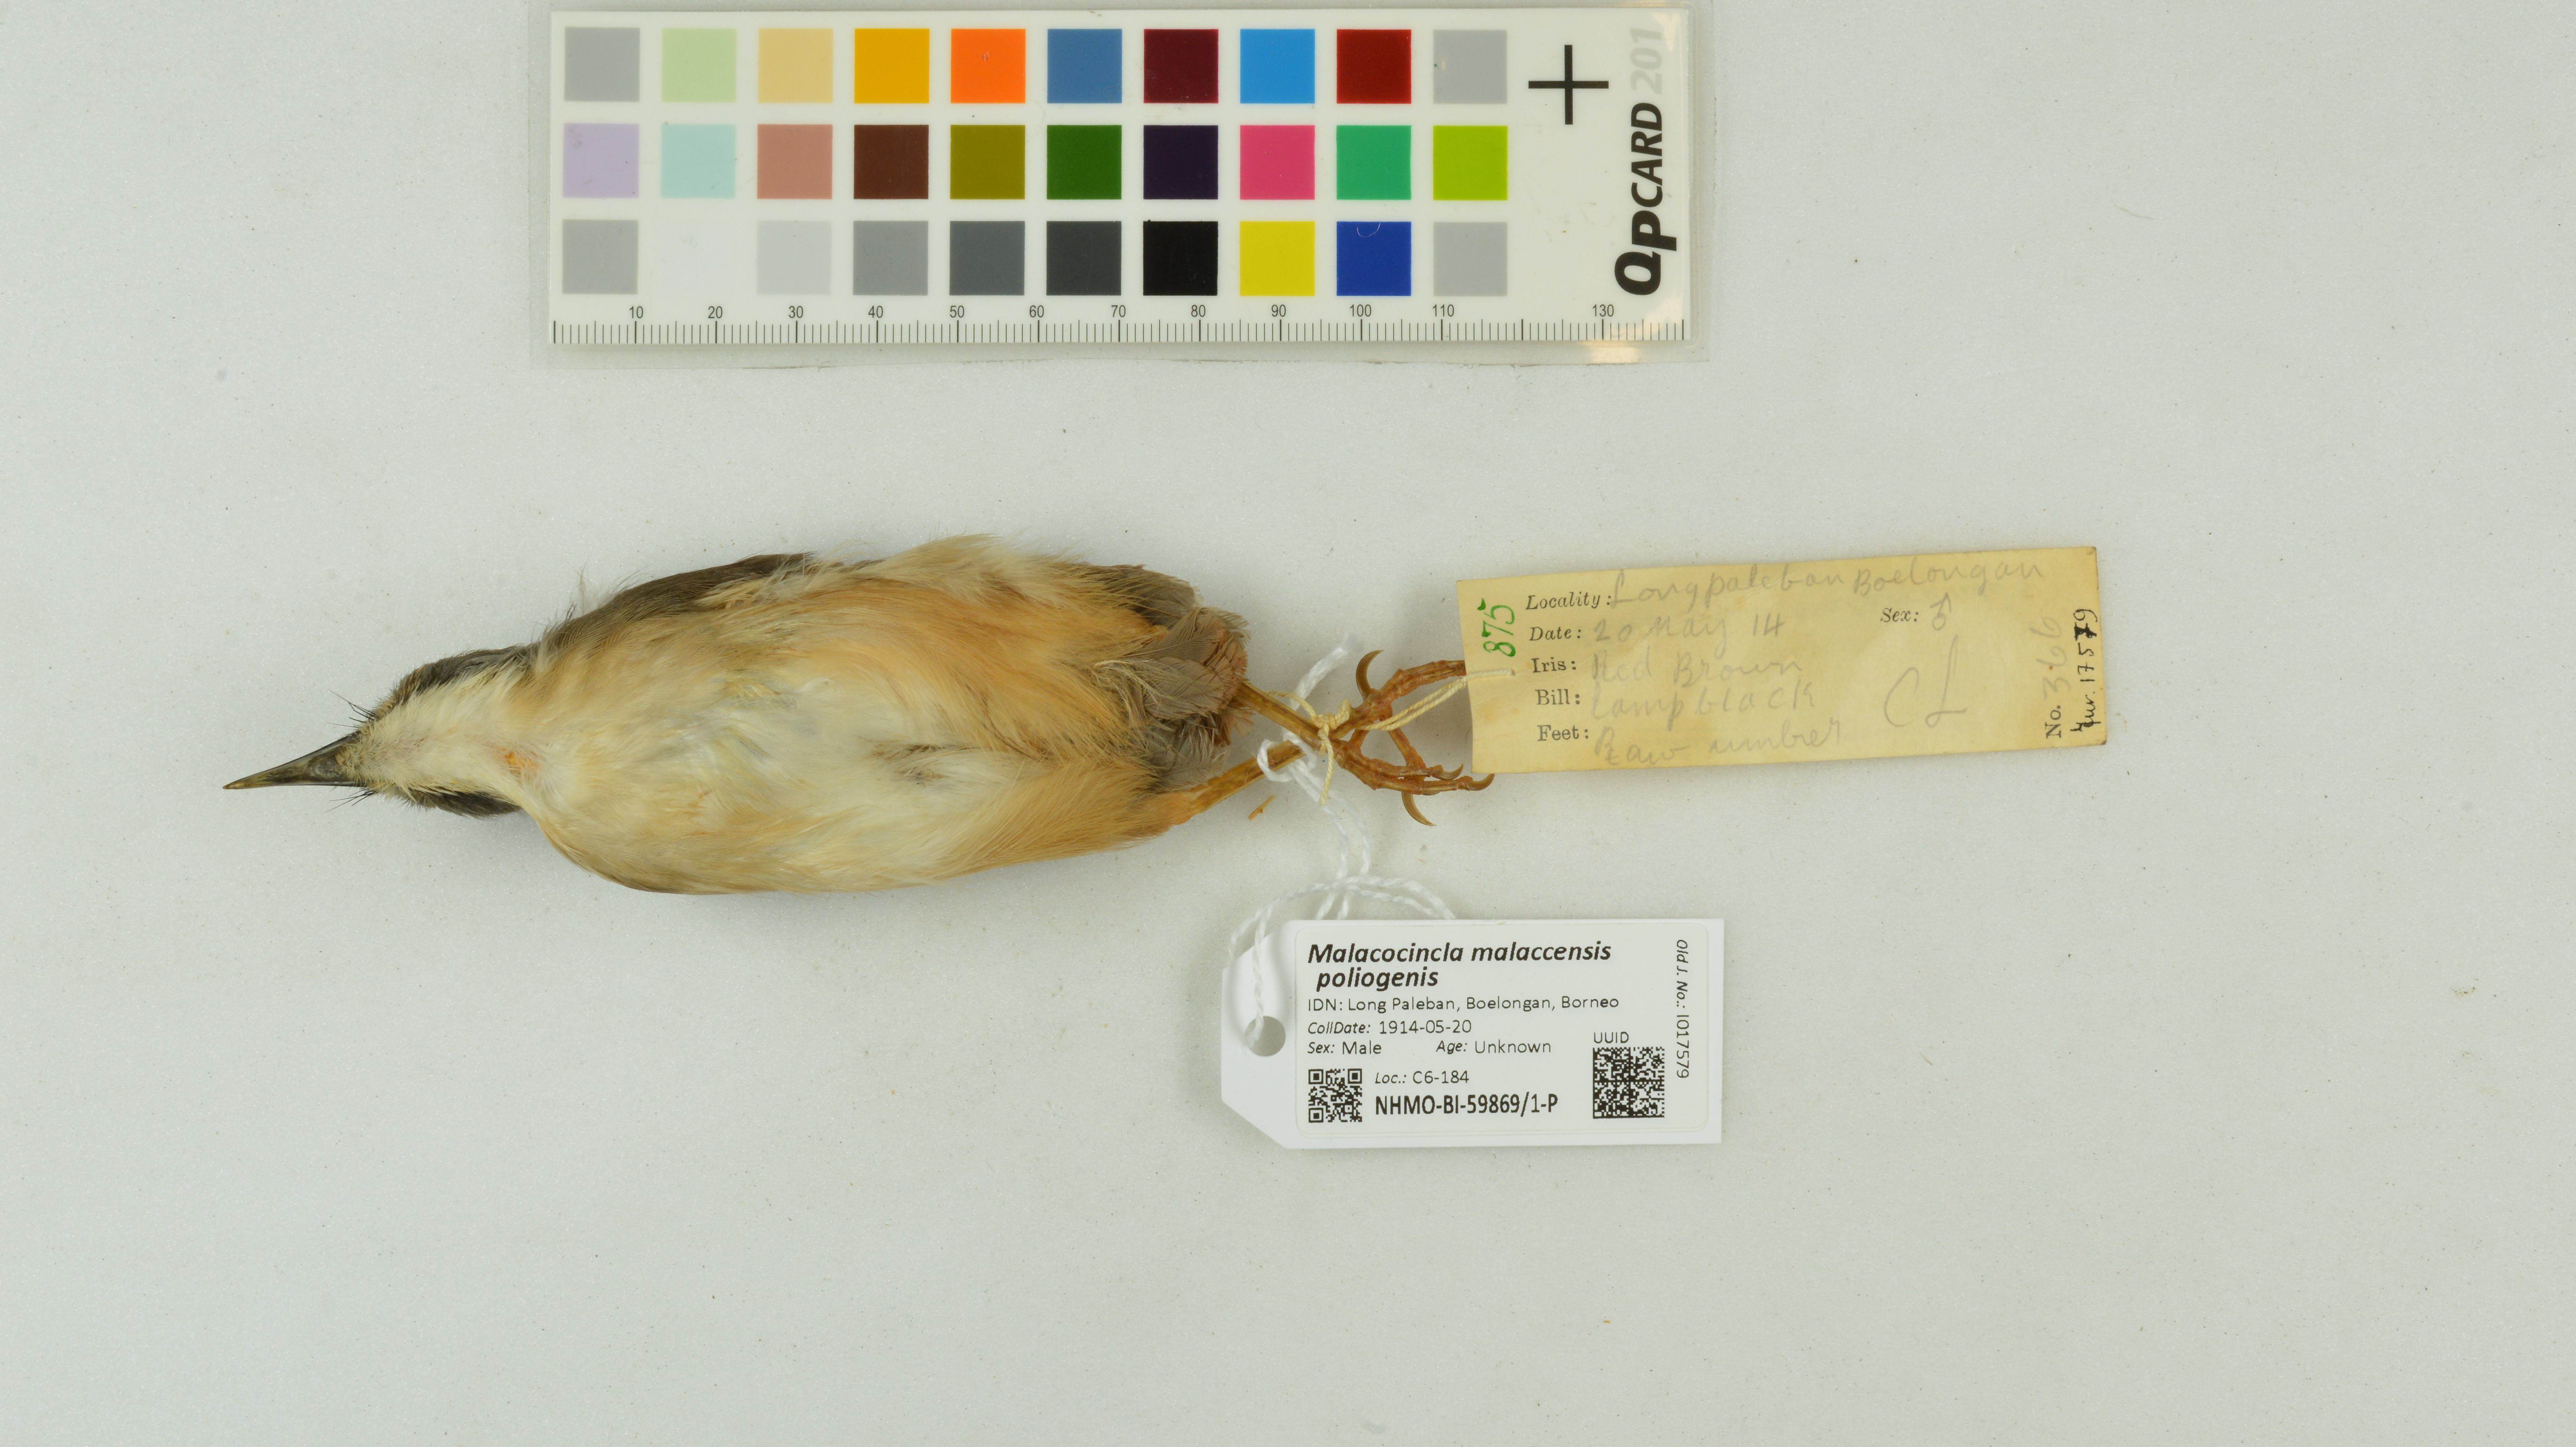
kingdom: Animalia
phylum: Chordata
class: Aves
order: Passeriformes
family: Pellorneidae
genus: Pellorneum
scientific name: Pellorneum malaccense
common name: Short-tailed babbler
